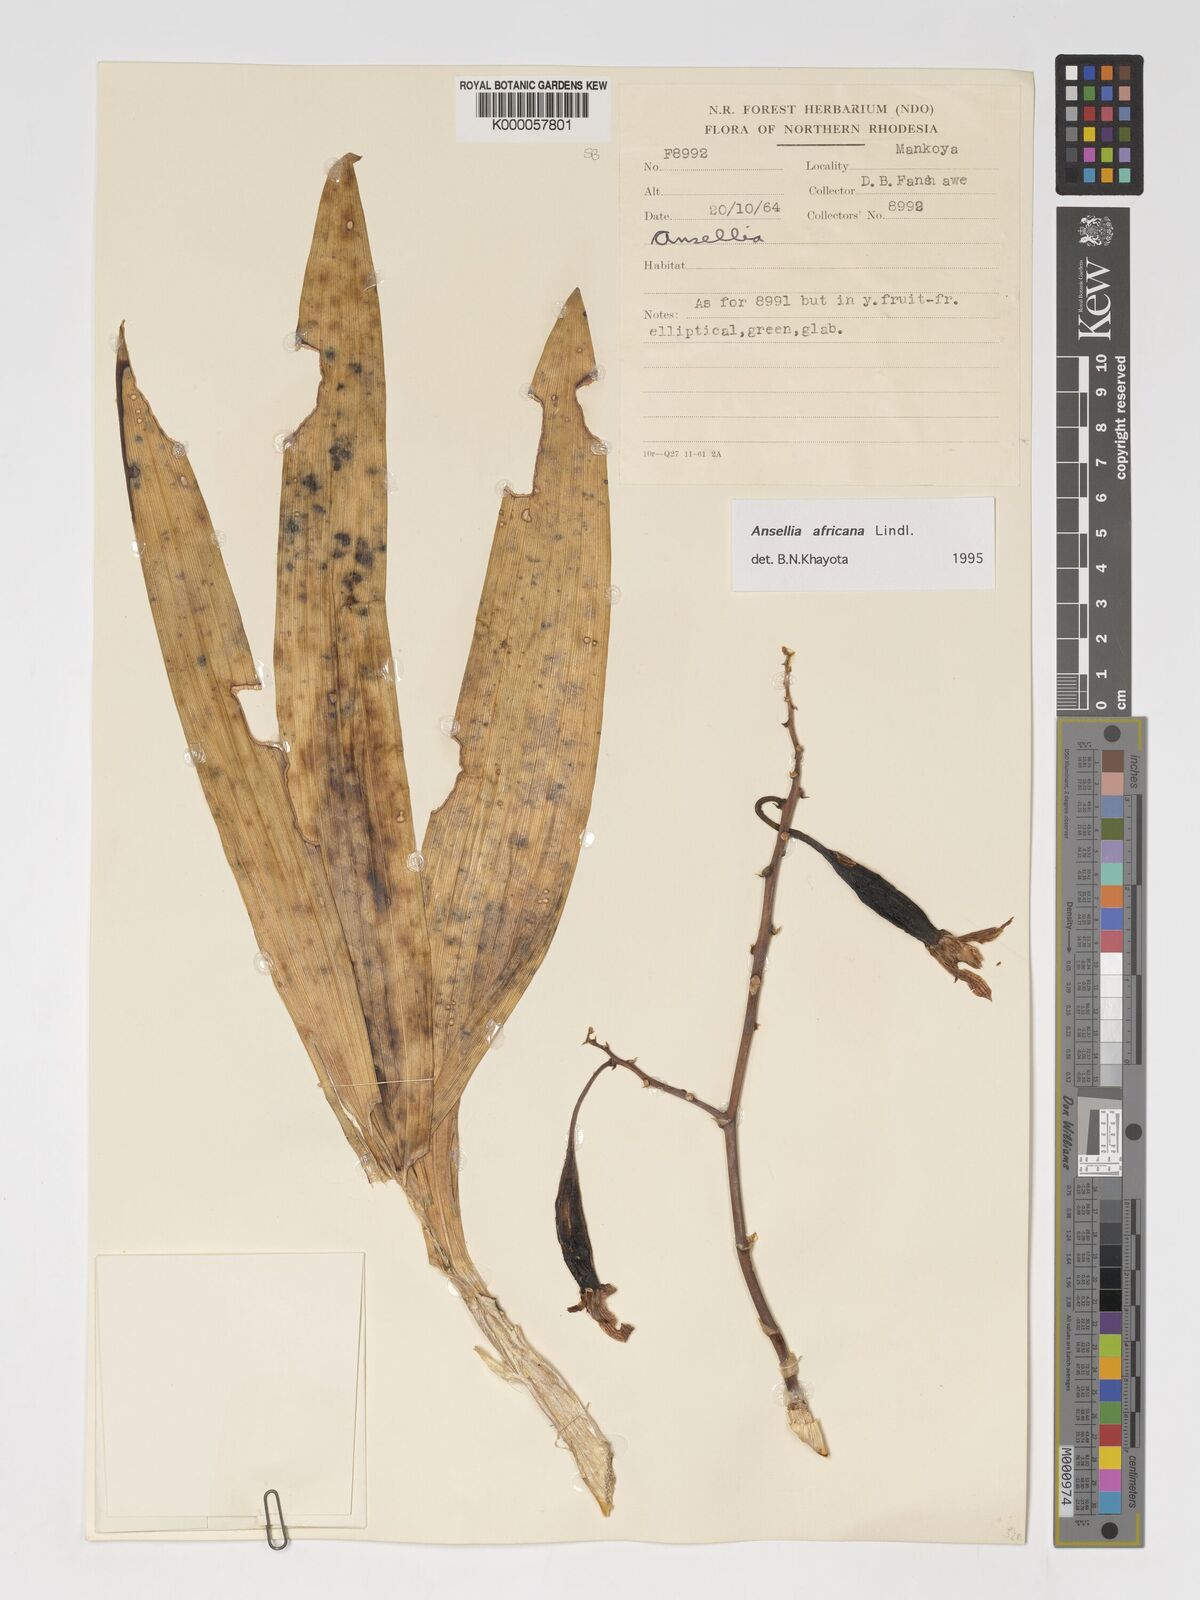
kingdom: Plantae
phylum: Tracheophyta
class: Liliopsida
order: Asparagales
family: Orchidaceae
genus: Ansellia
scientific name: Ansellia africana
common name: African ansellia
